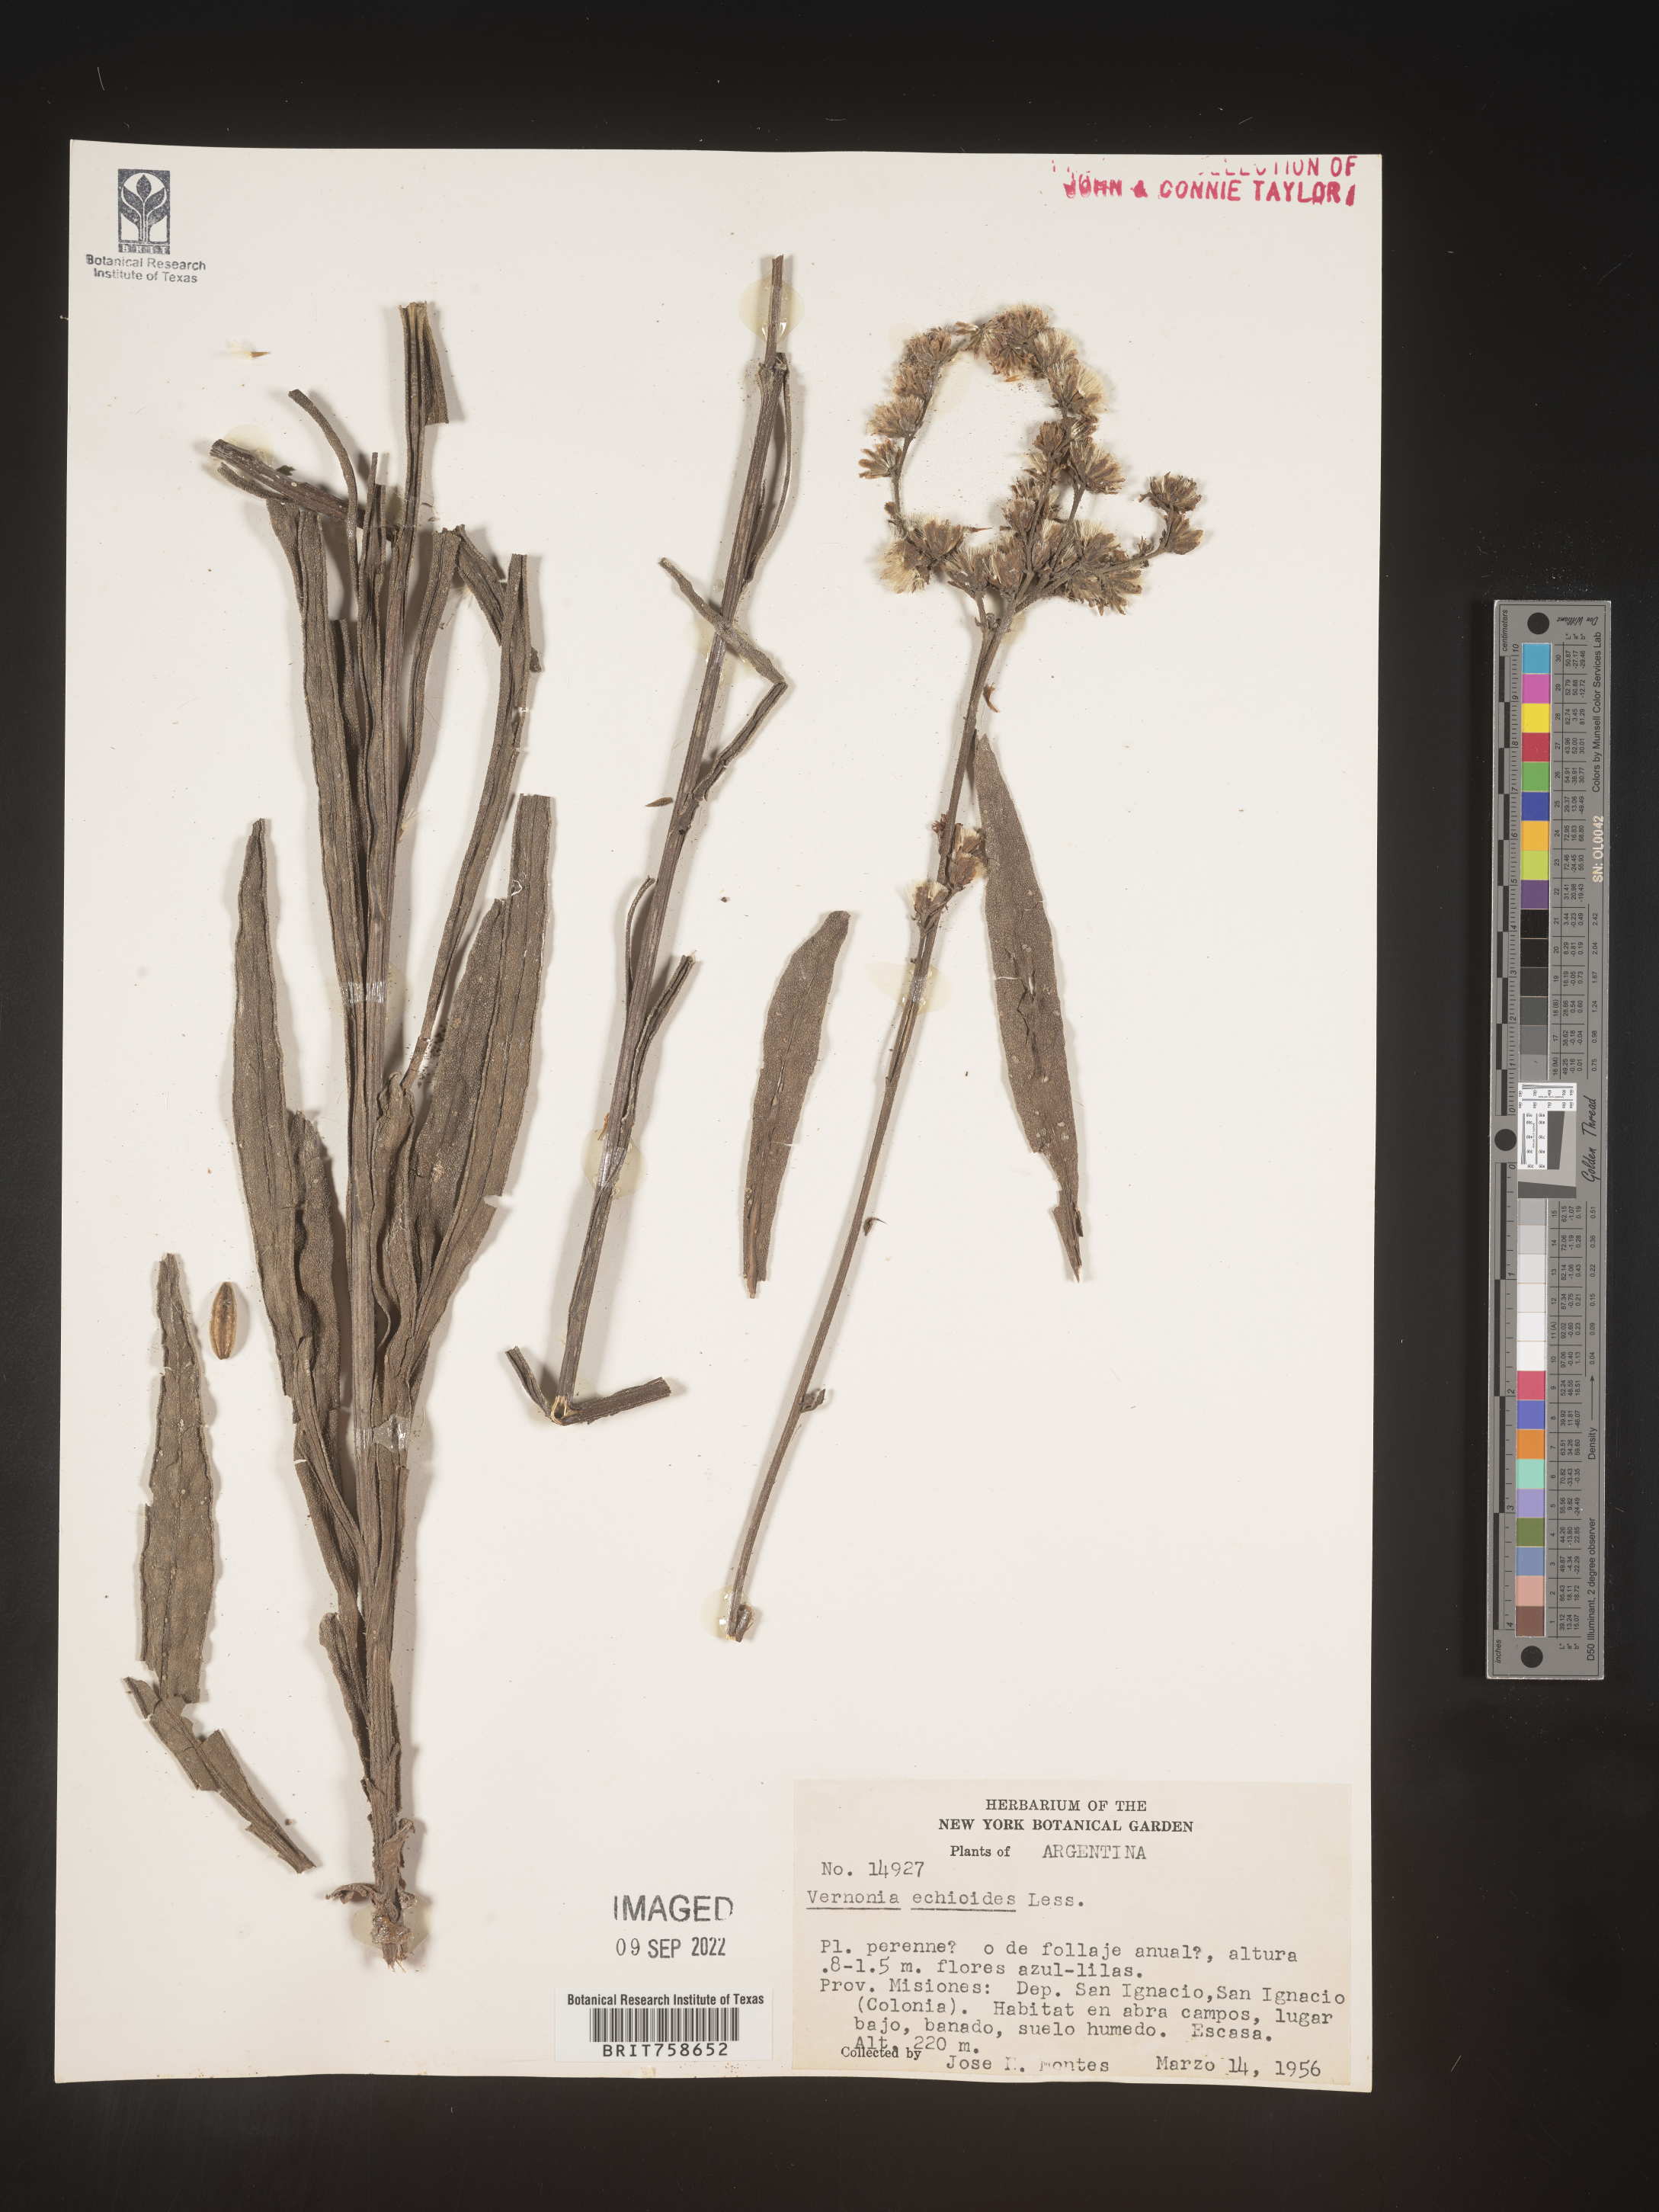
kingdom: Plantae
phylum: Tracheophyta
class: Magnoliopsida
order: Asterales
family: Asteraceae
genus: Vernonia
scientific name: Vernonia
